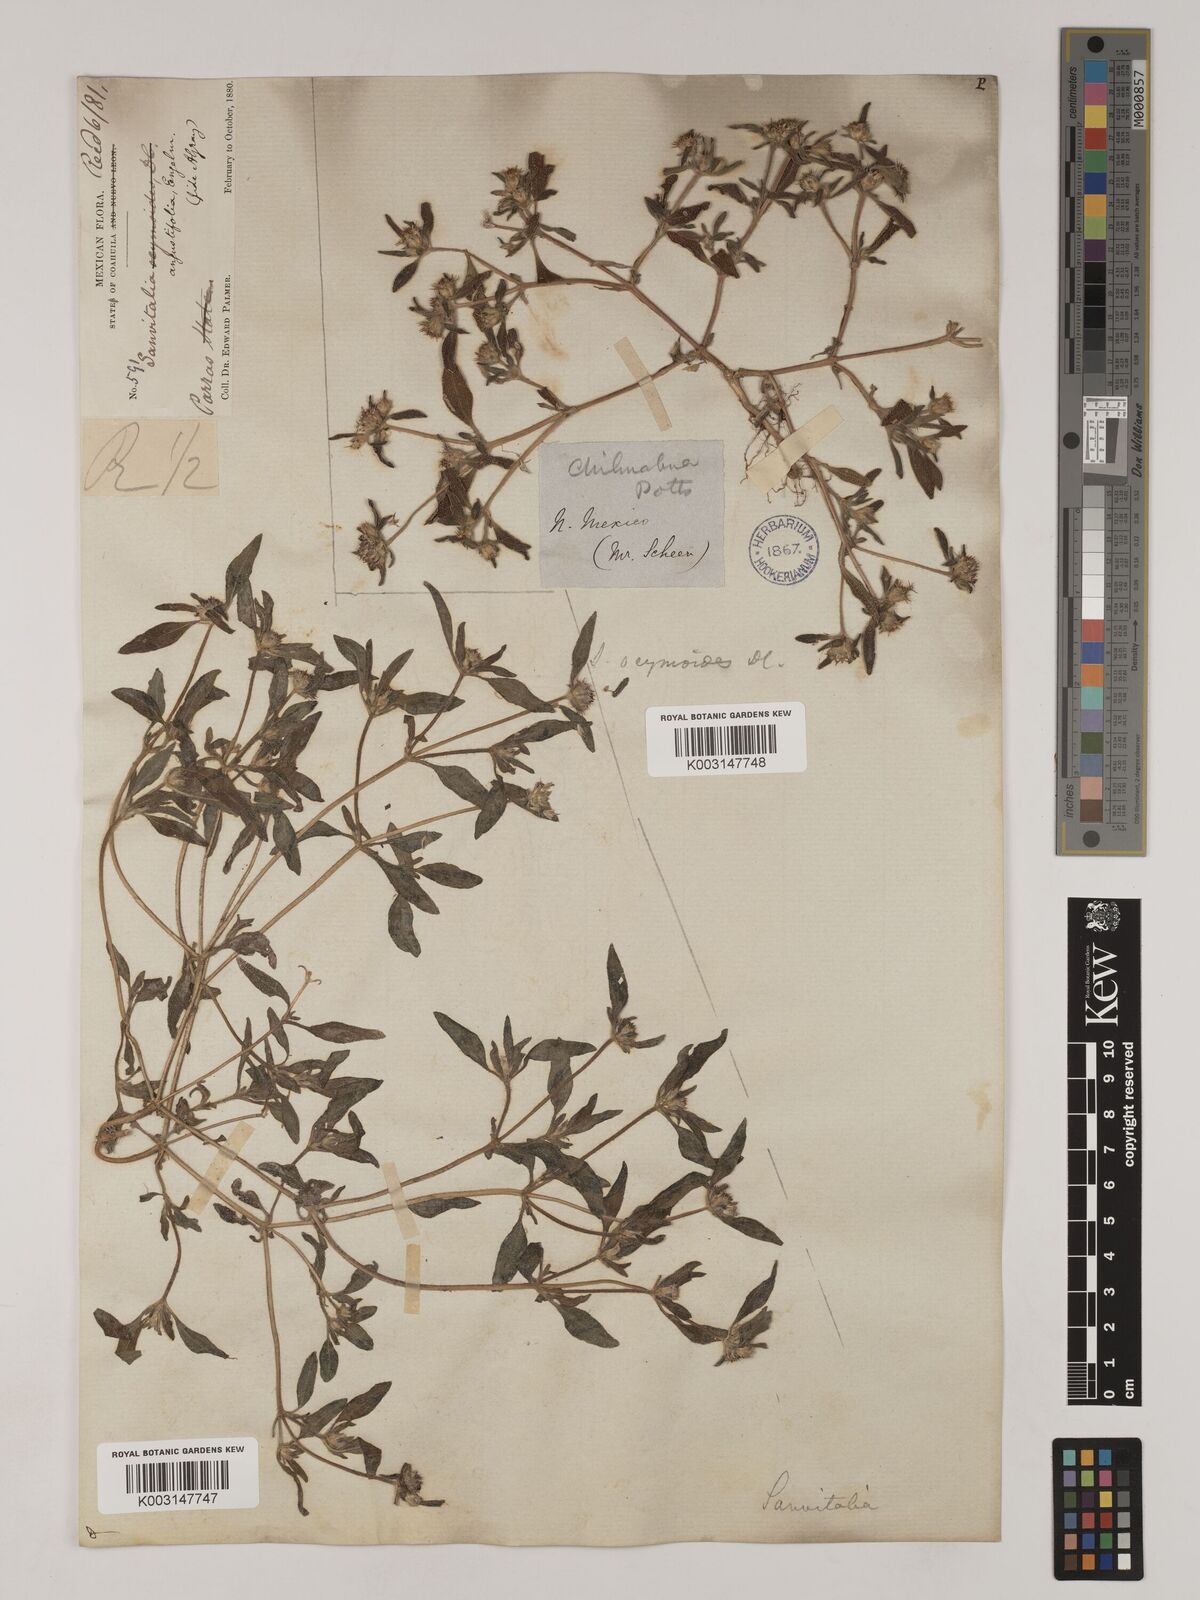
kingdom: Plantae
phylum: Tracheophyta
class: Magnoliopsida
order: Asterales
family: Asteraceae
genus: Sanvitalia
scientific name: Sanvitalia angustifolia
